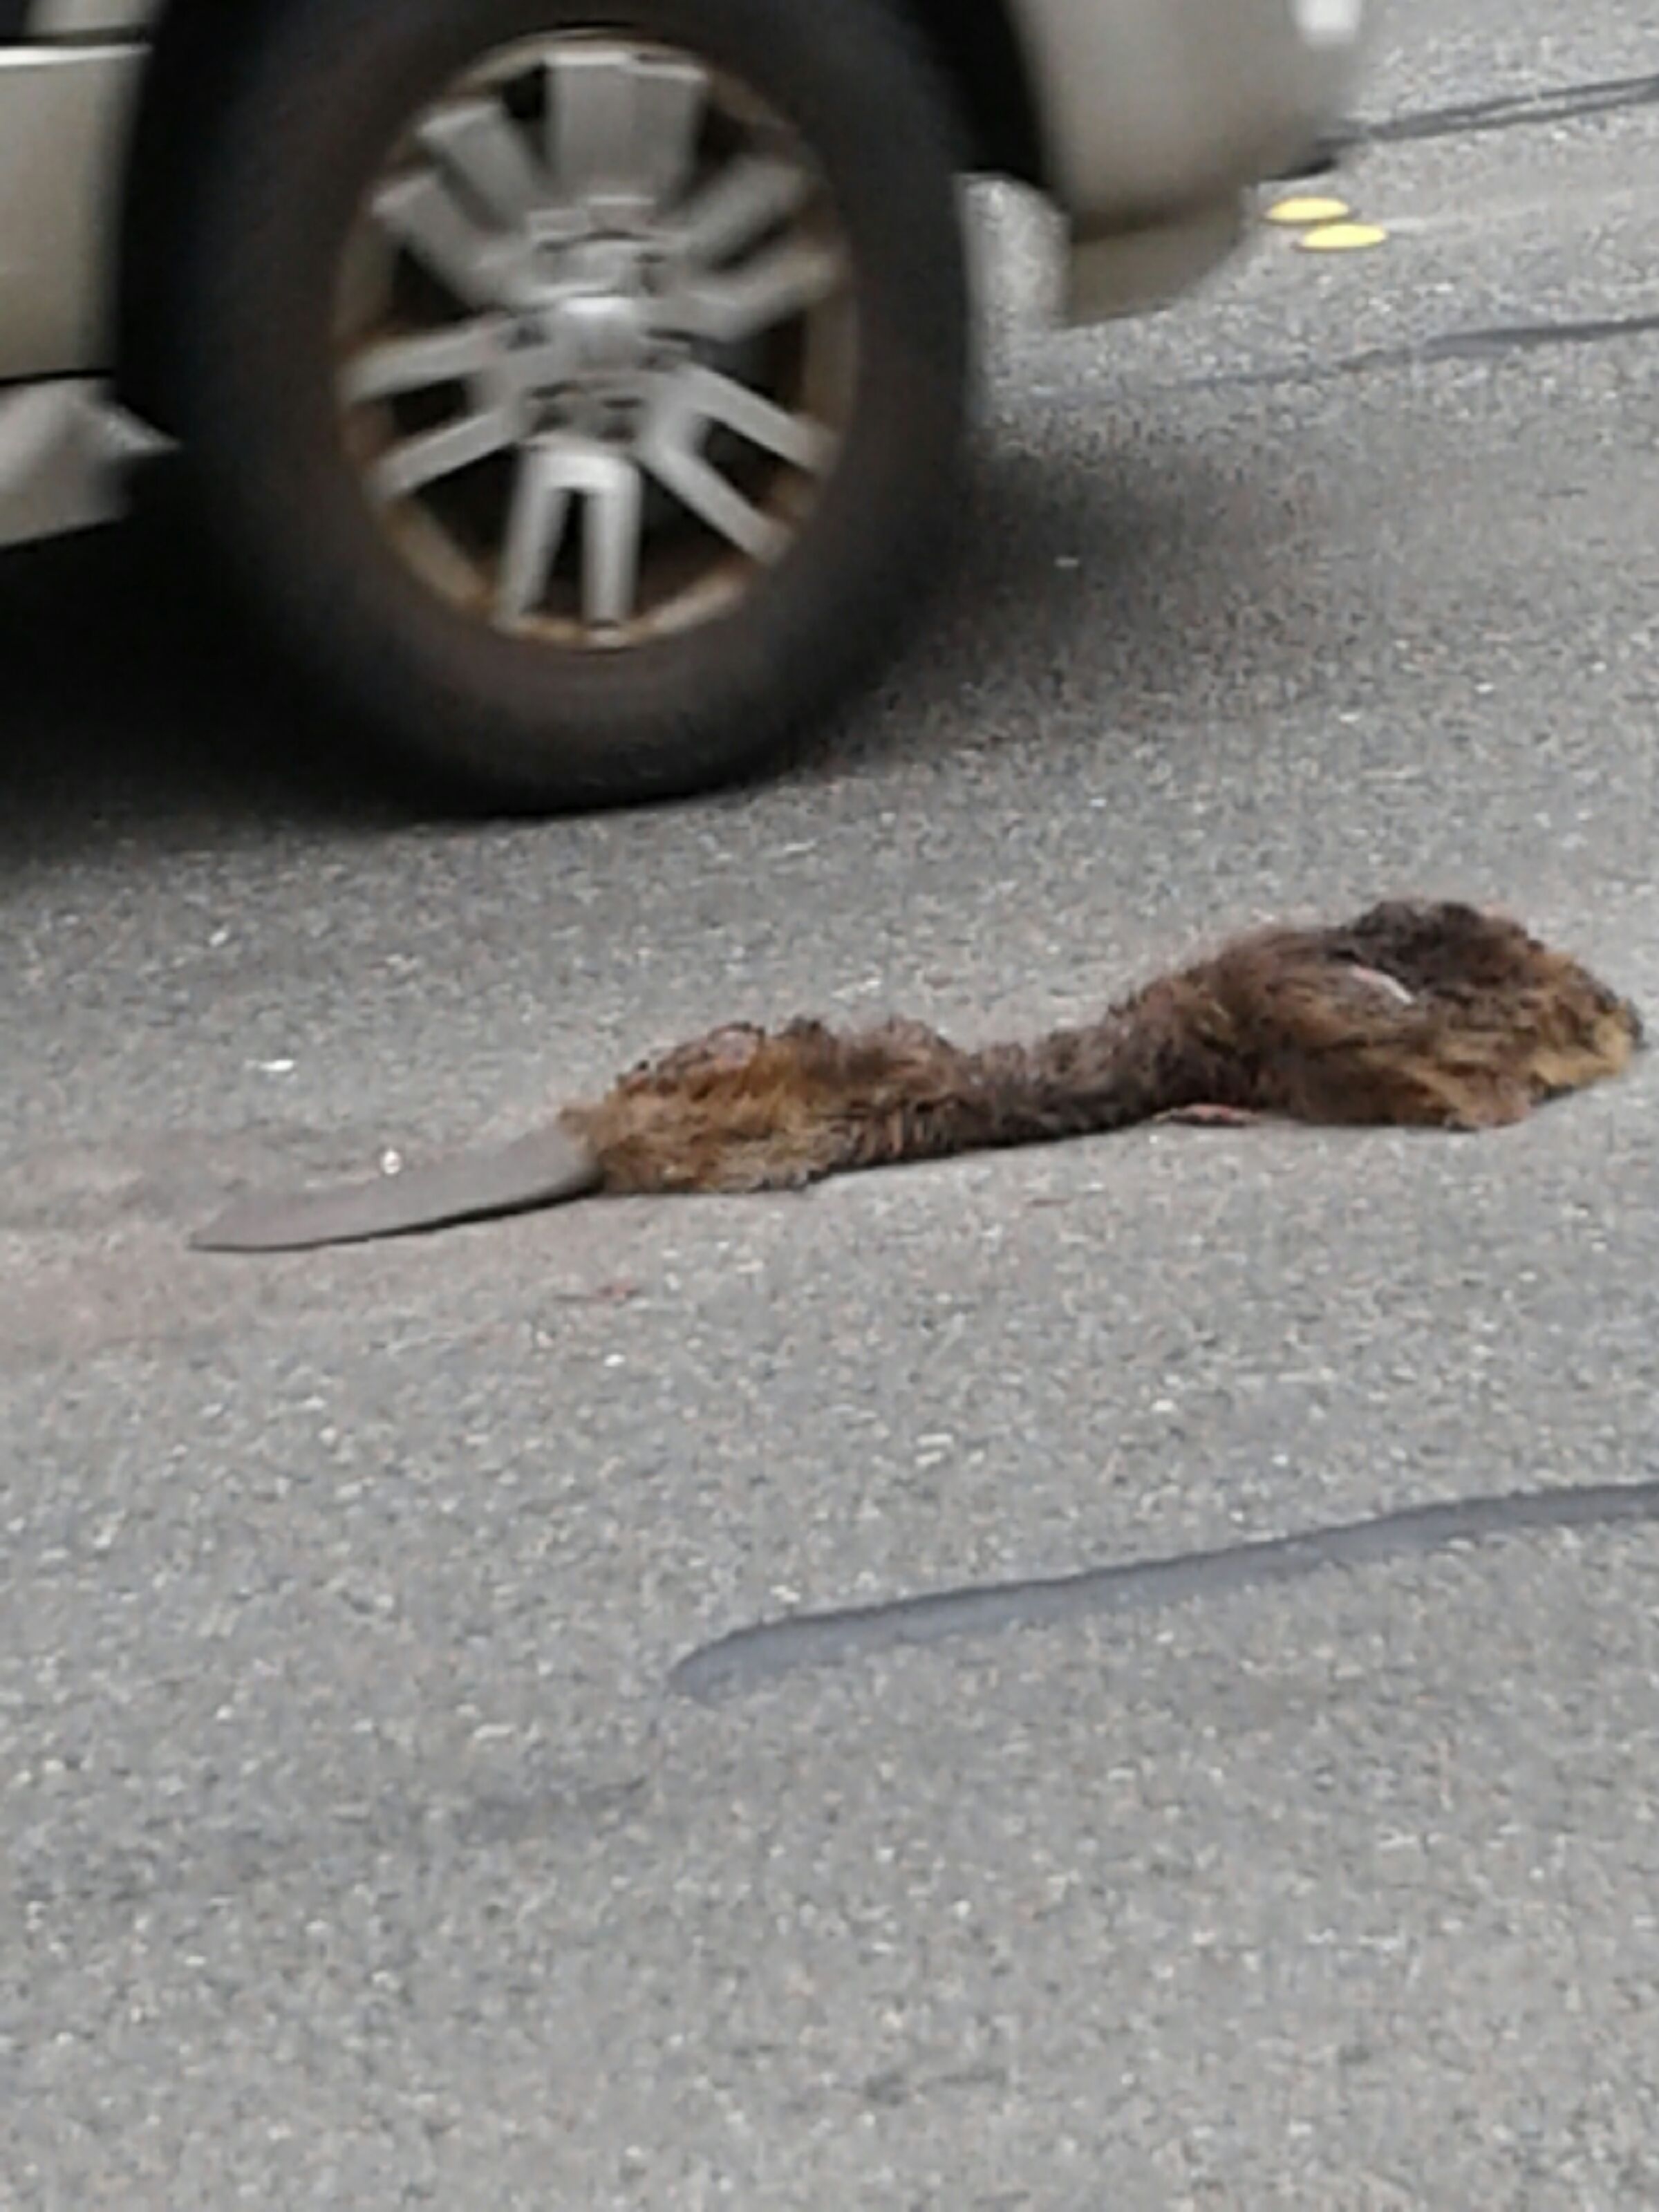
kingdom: Animalia
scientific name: Animalia
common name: NA
